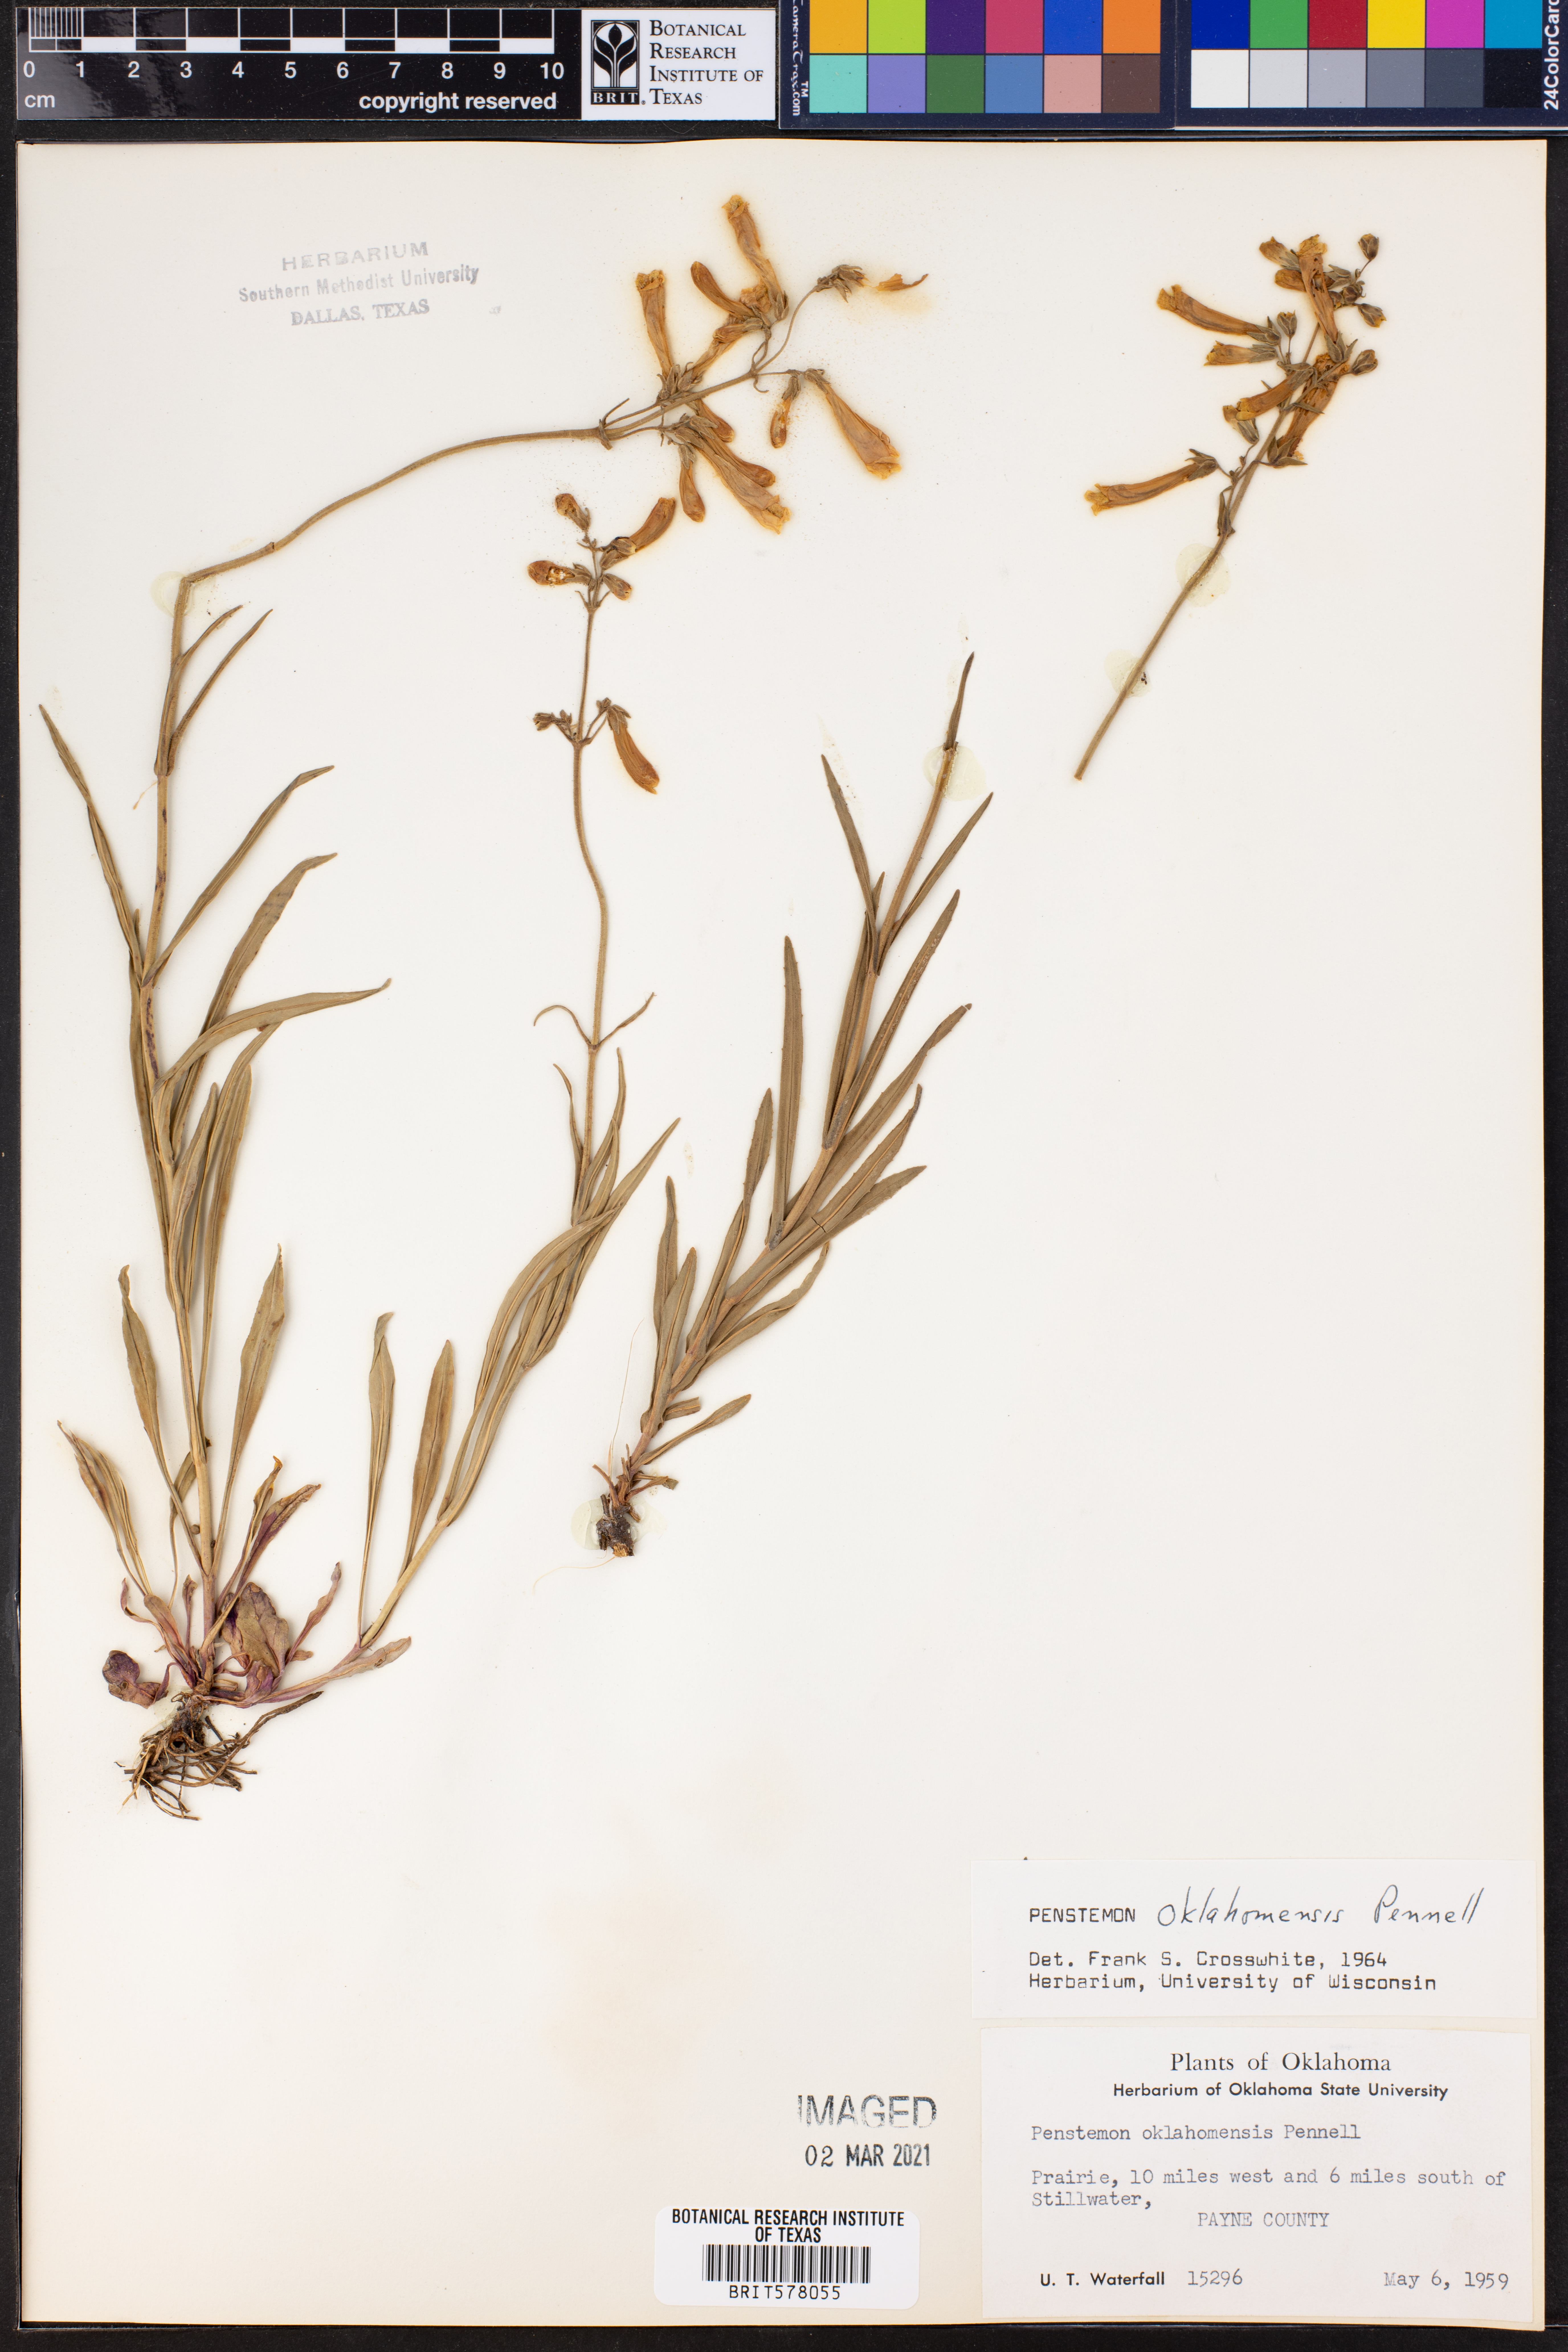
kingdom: Plantae
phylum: Tracheophyta
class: Magnoliopsida
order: Lamiales
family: Plantaginaceae
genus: Penstemon
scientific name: Penstemon oklahomensis
